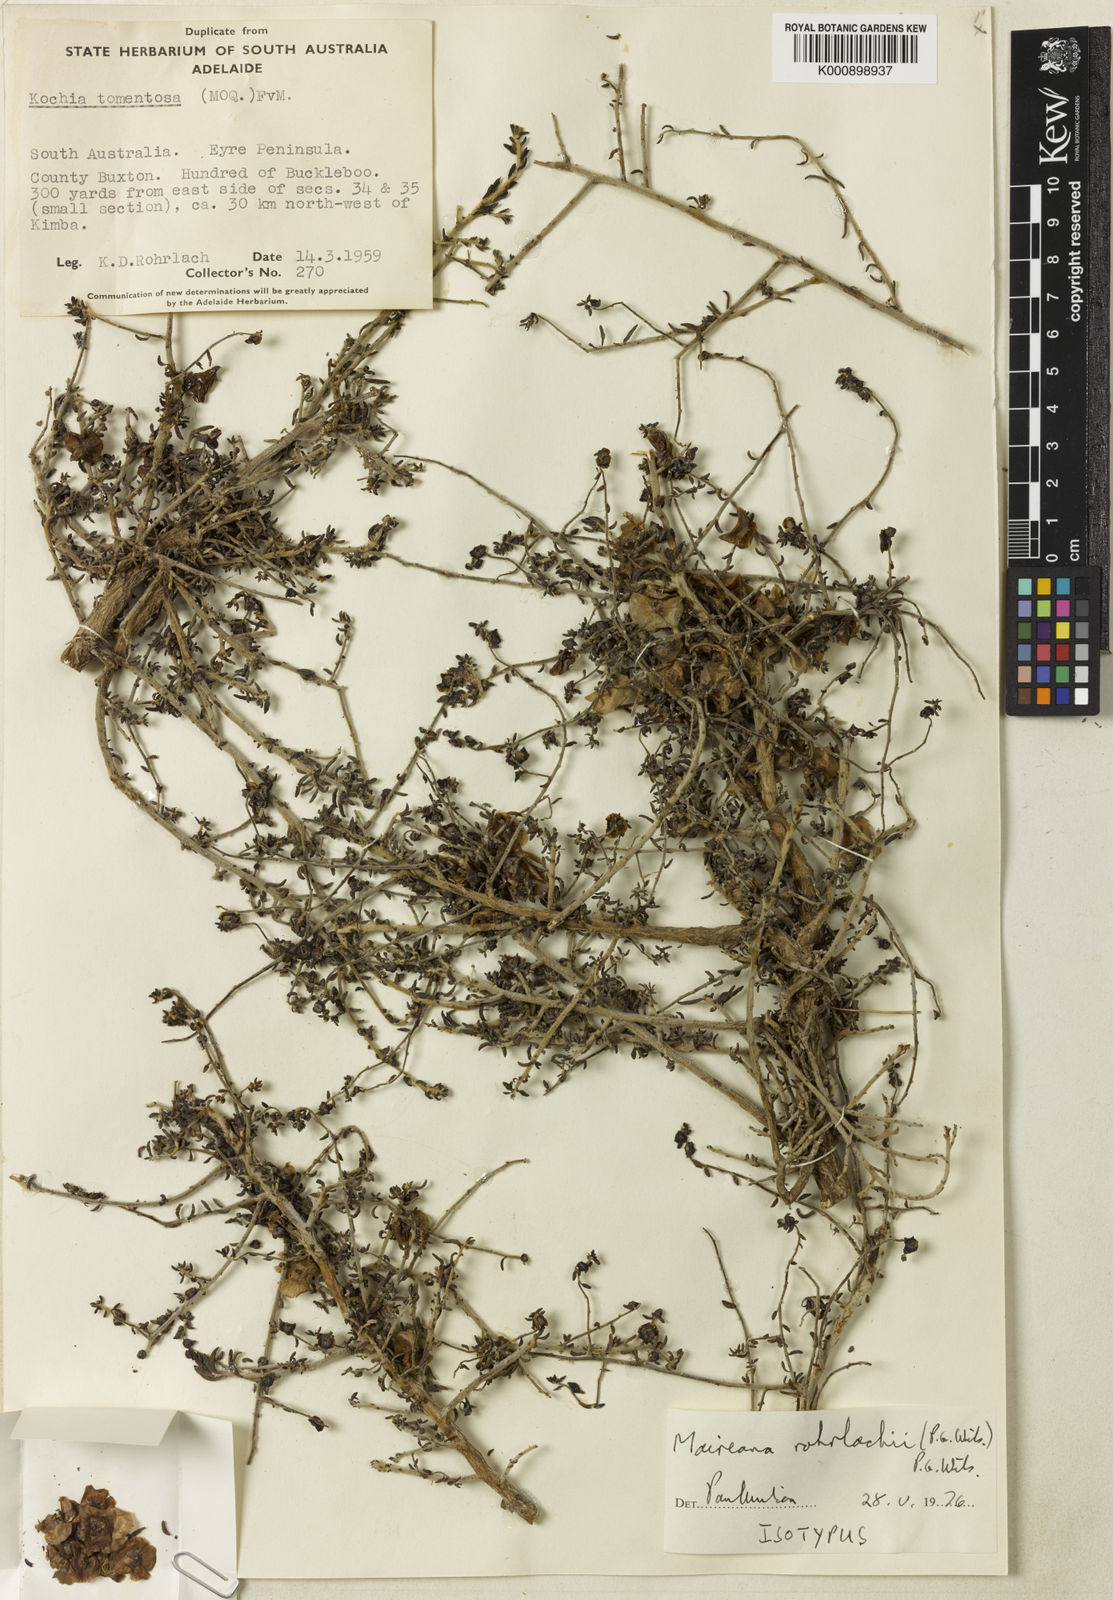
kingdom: Plantae
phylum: Tracheophyta
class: Magnoliopsida
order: Caryophyllales
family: Amaranthaceae
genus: Maireana
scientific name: Maireana rohrlachii
